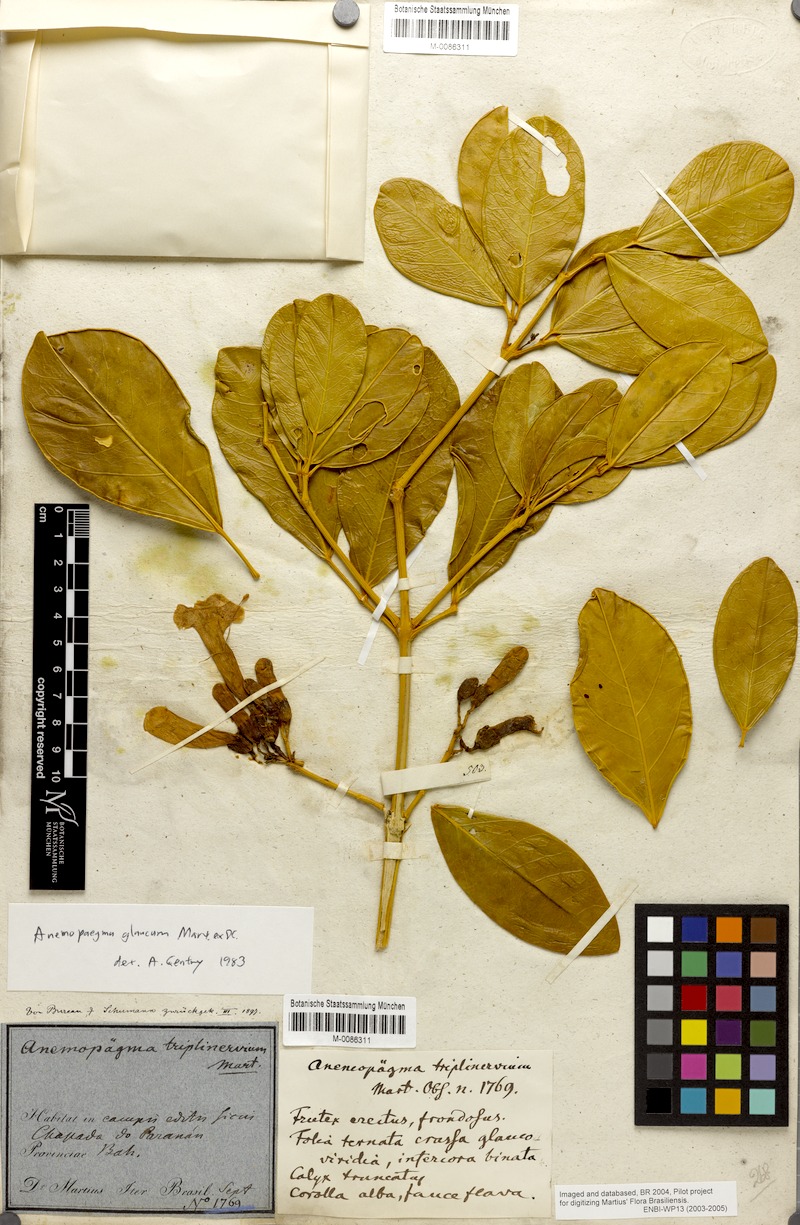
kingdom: Plantae
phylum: Tracheophyta
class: Magnoliopsida
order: Lamiales
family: Bignoniaceae
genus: Anemopaegma
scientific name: Anemopaegma glaucum
